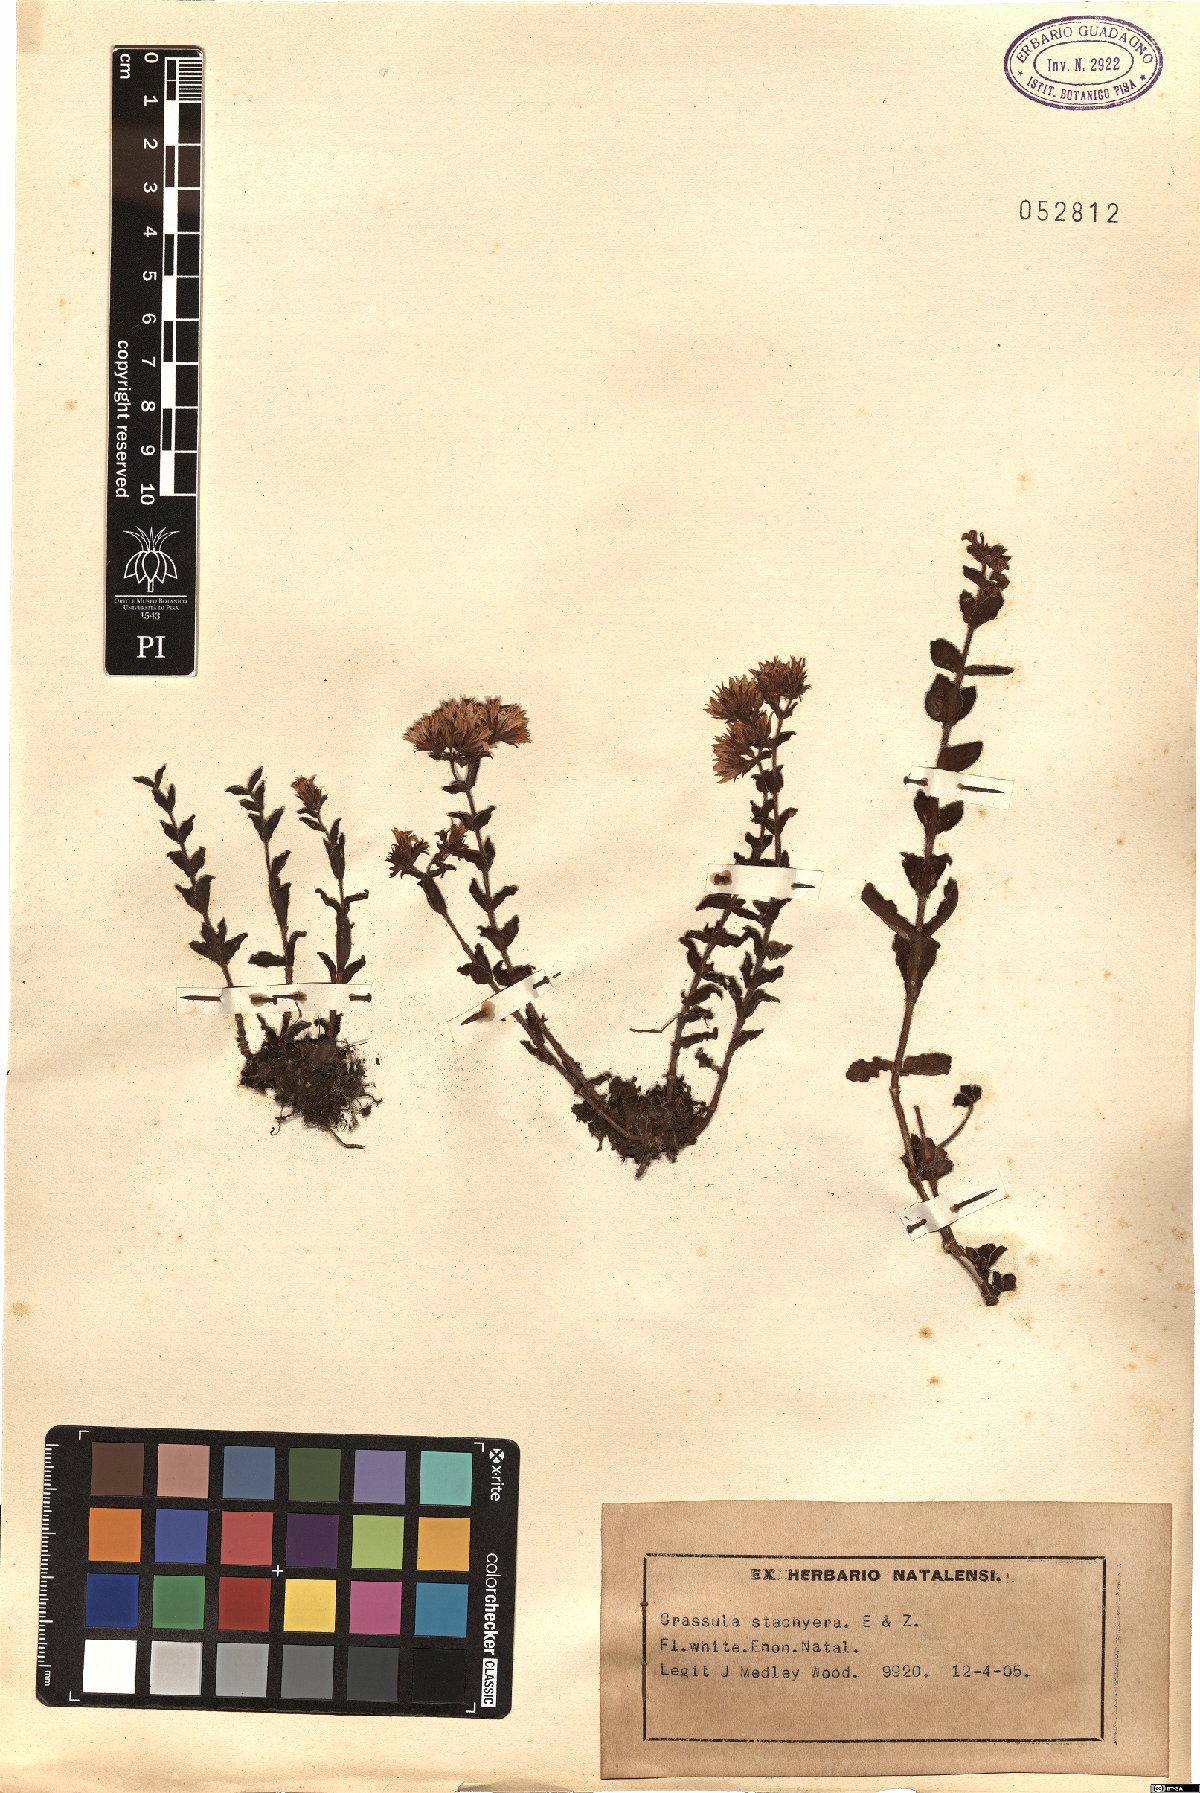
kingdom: Plantae
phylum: Tracheophyta
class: Magnoliopsida
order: Saxifragales
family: Crassulaceae
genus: Crassula
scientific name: Crassula obovata
